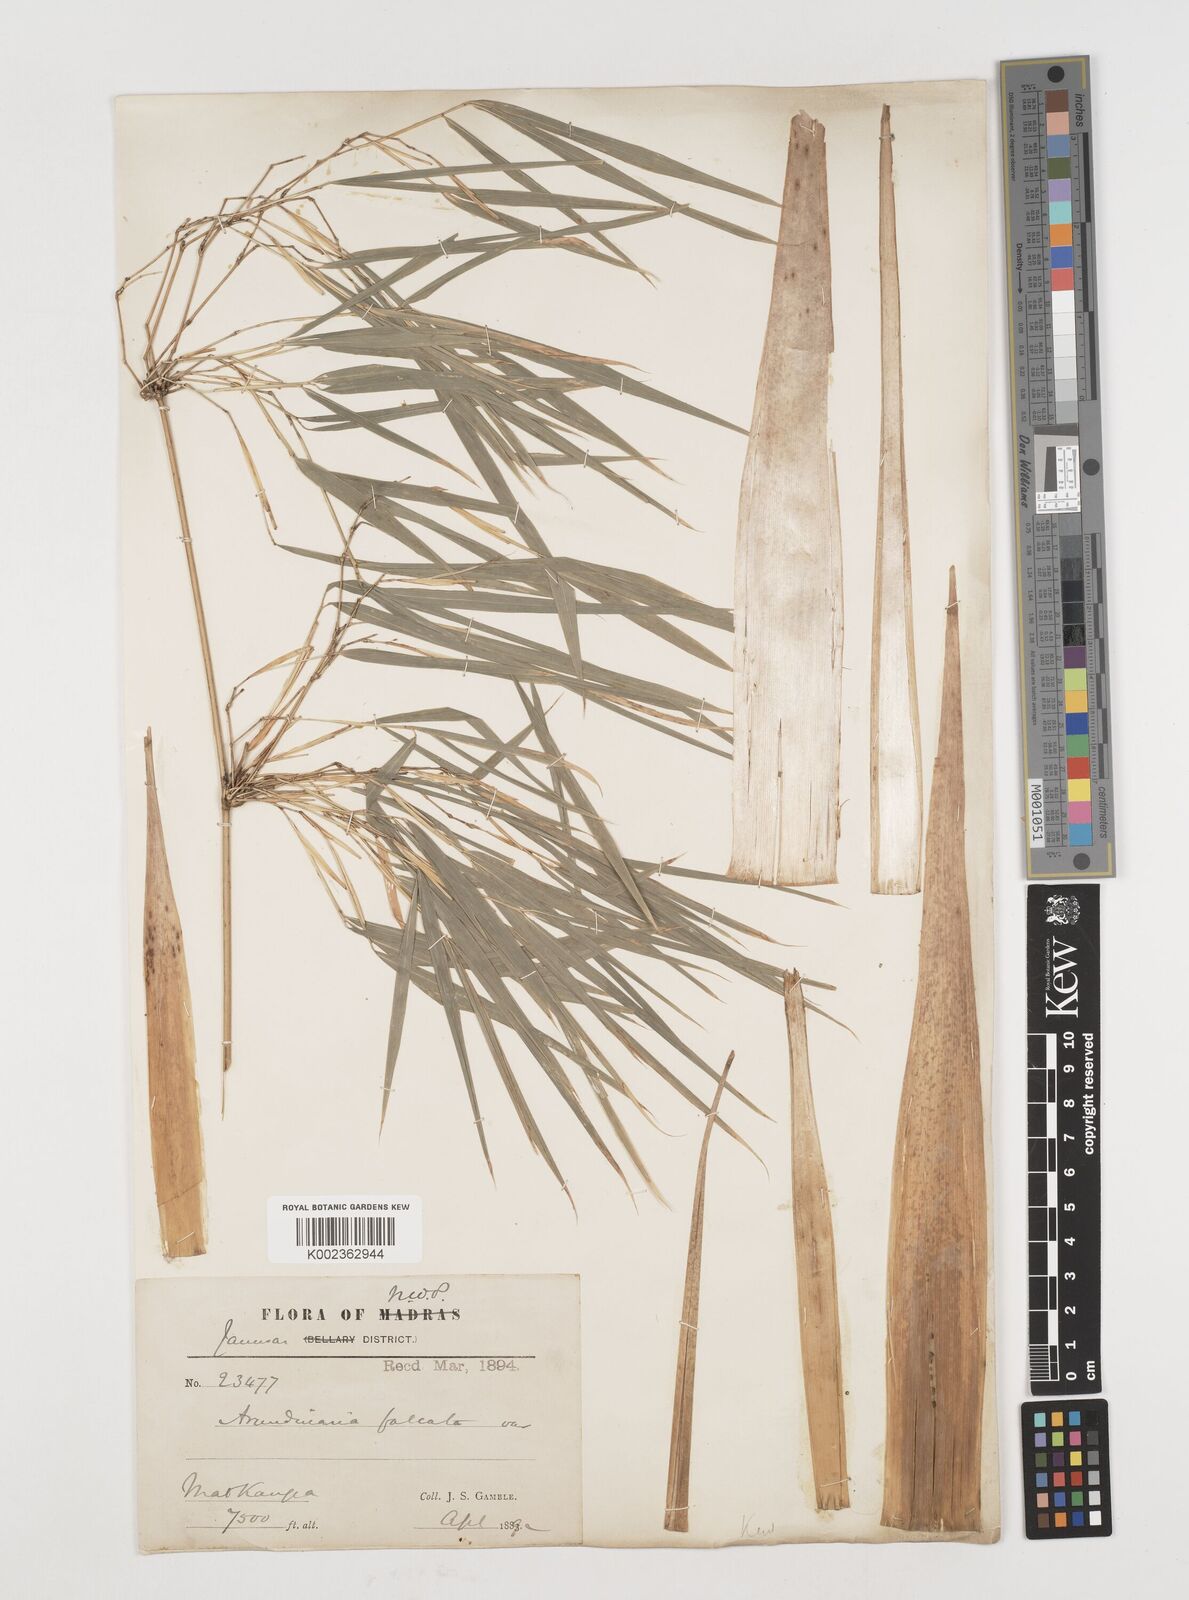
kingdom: Plantae
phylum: Tracheophyta
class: Liliopsida
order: Poales
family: Poaceae
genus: Drepanostachyum
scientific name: Drepanostachyum falcatum
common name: Himalayan bamboo
